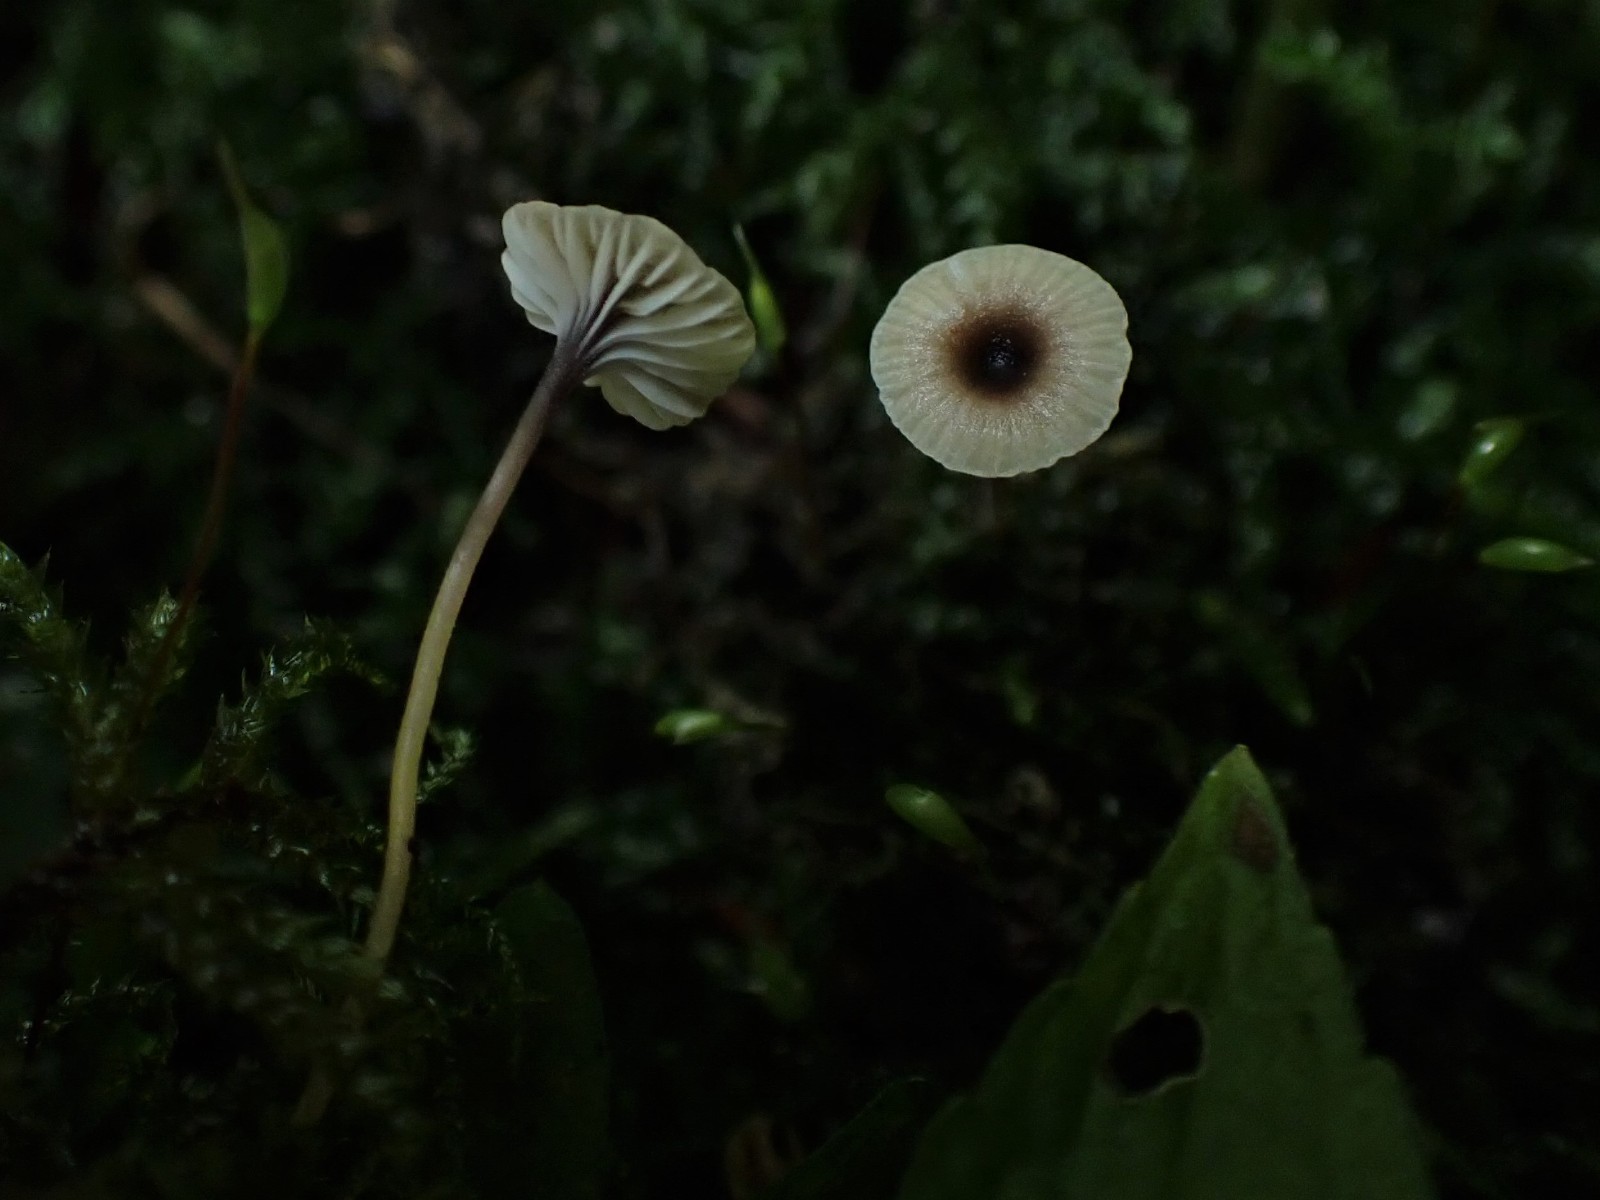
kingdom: Fungi
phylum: Basidiomycota
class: Agaricomycetes
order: Hymenochaetales
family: Rickenellaceae
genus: Rickenella
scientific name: Rickenella swartzii
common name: finstokket mosnavlehat
